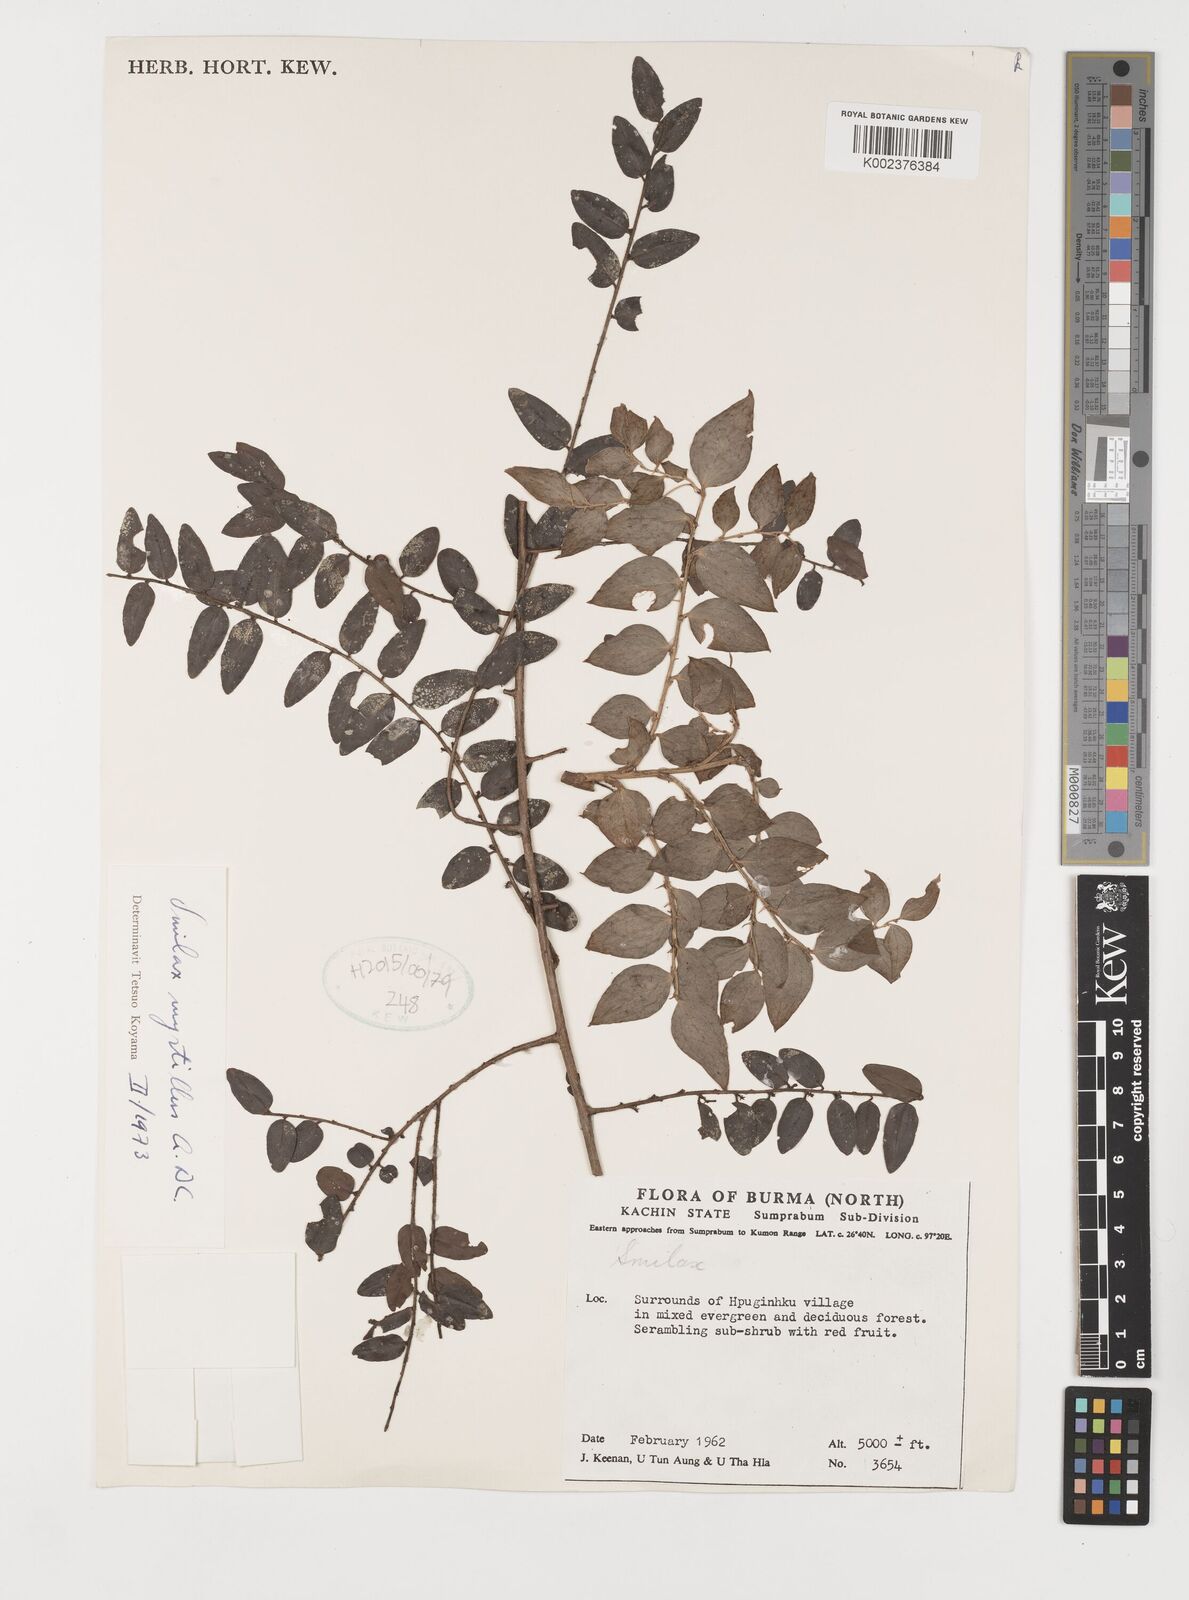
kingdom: Plantae
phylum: Tracheophyta
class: Liliopsida
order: Liliales
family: Smilacaceae
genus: Smilax
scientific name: Smilax myrtillus
